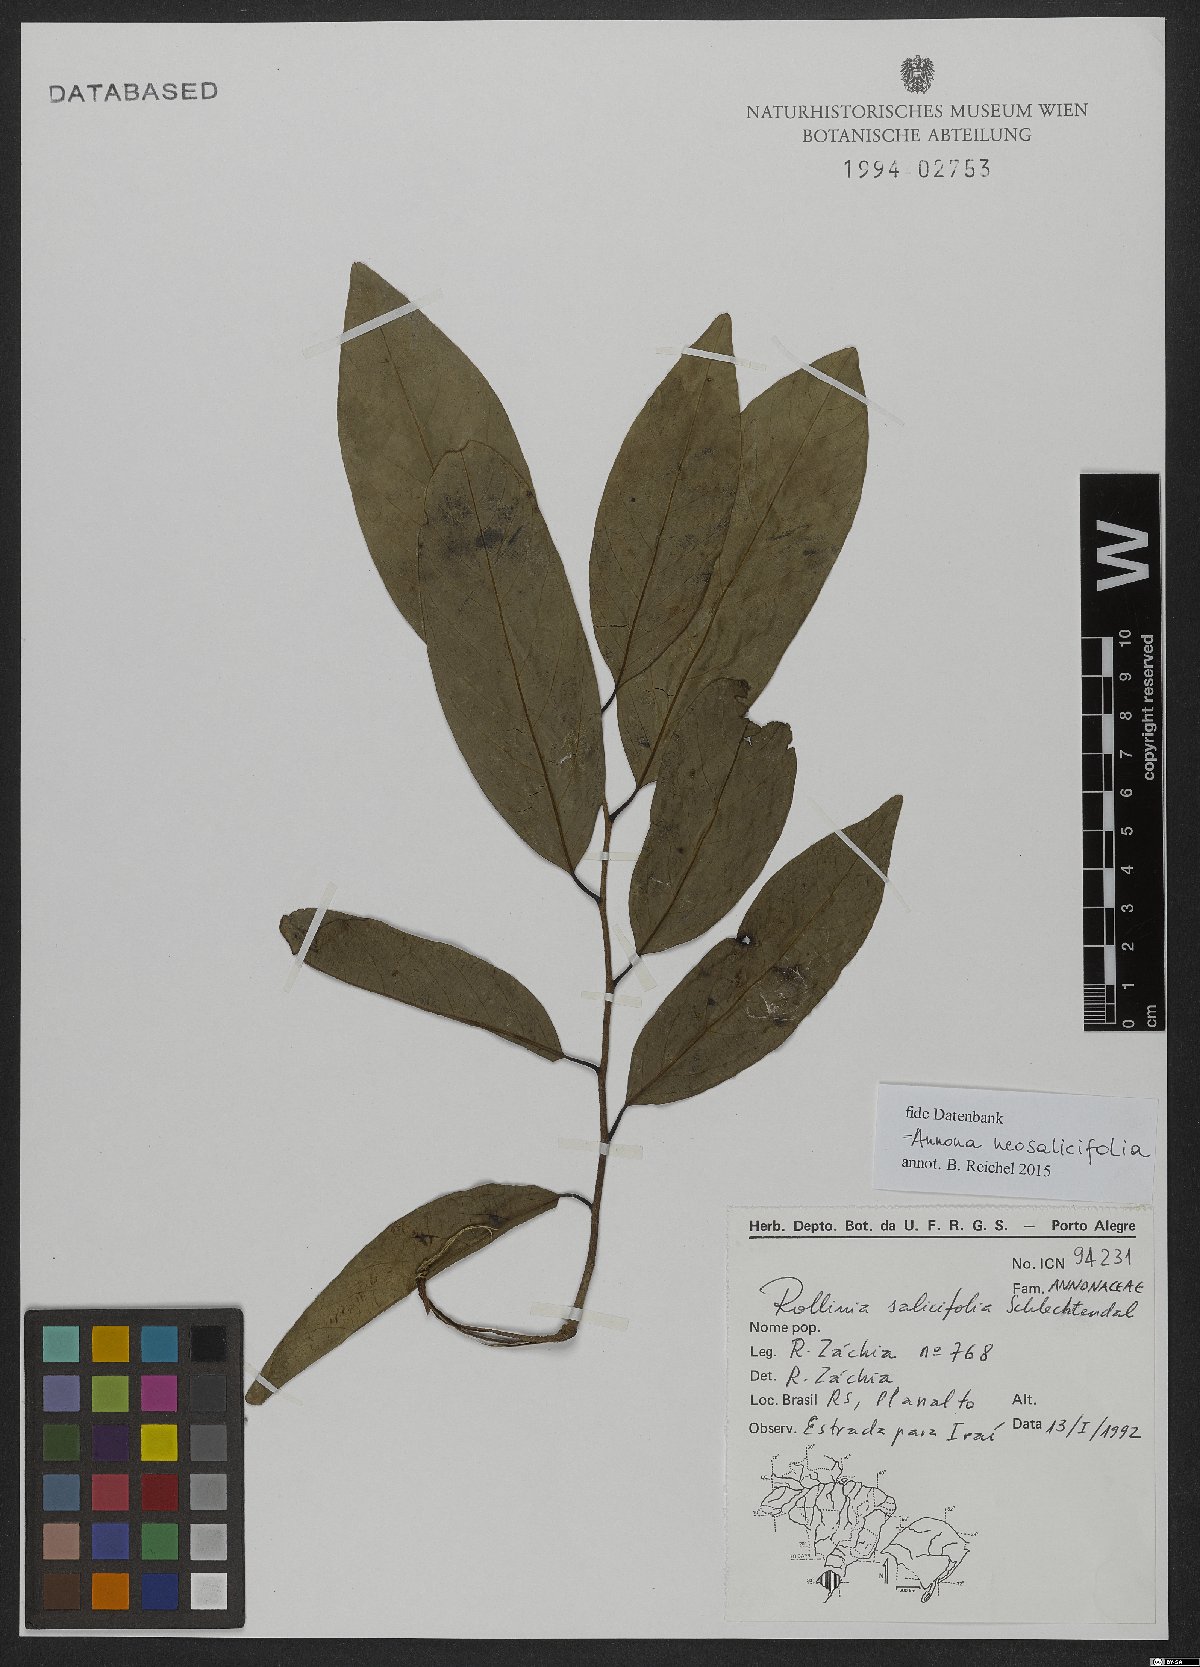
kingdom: Plantae
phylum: Tracheophyta
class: Magnoliopsida
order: Magnoliales
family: Annonaceae
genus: Annona
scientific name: Annona neosalicifolia
